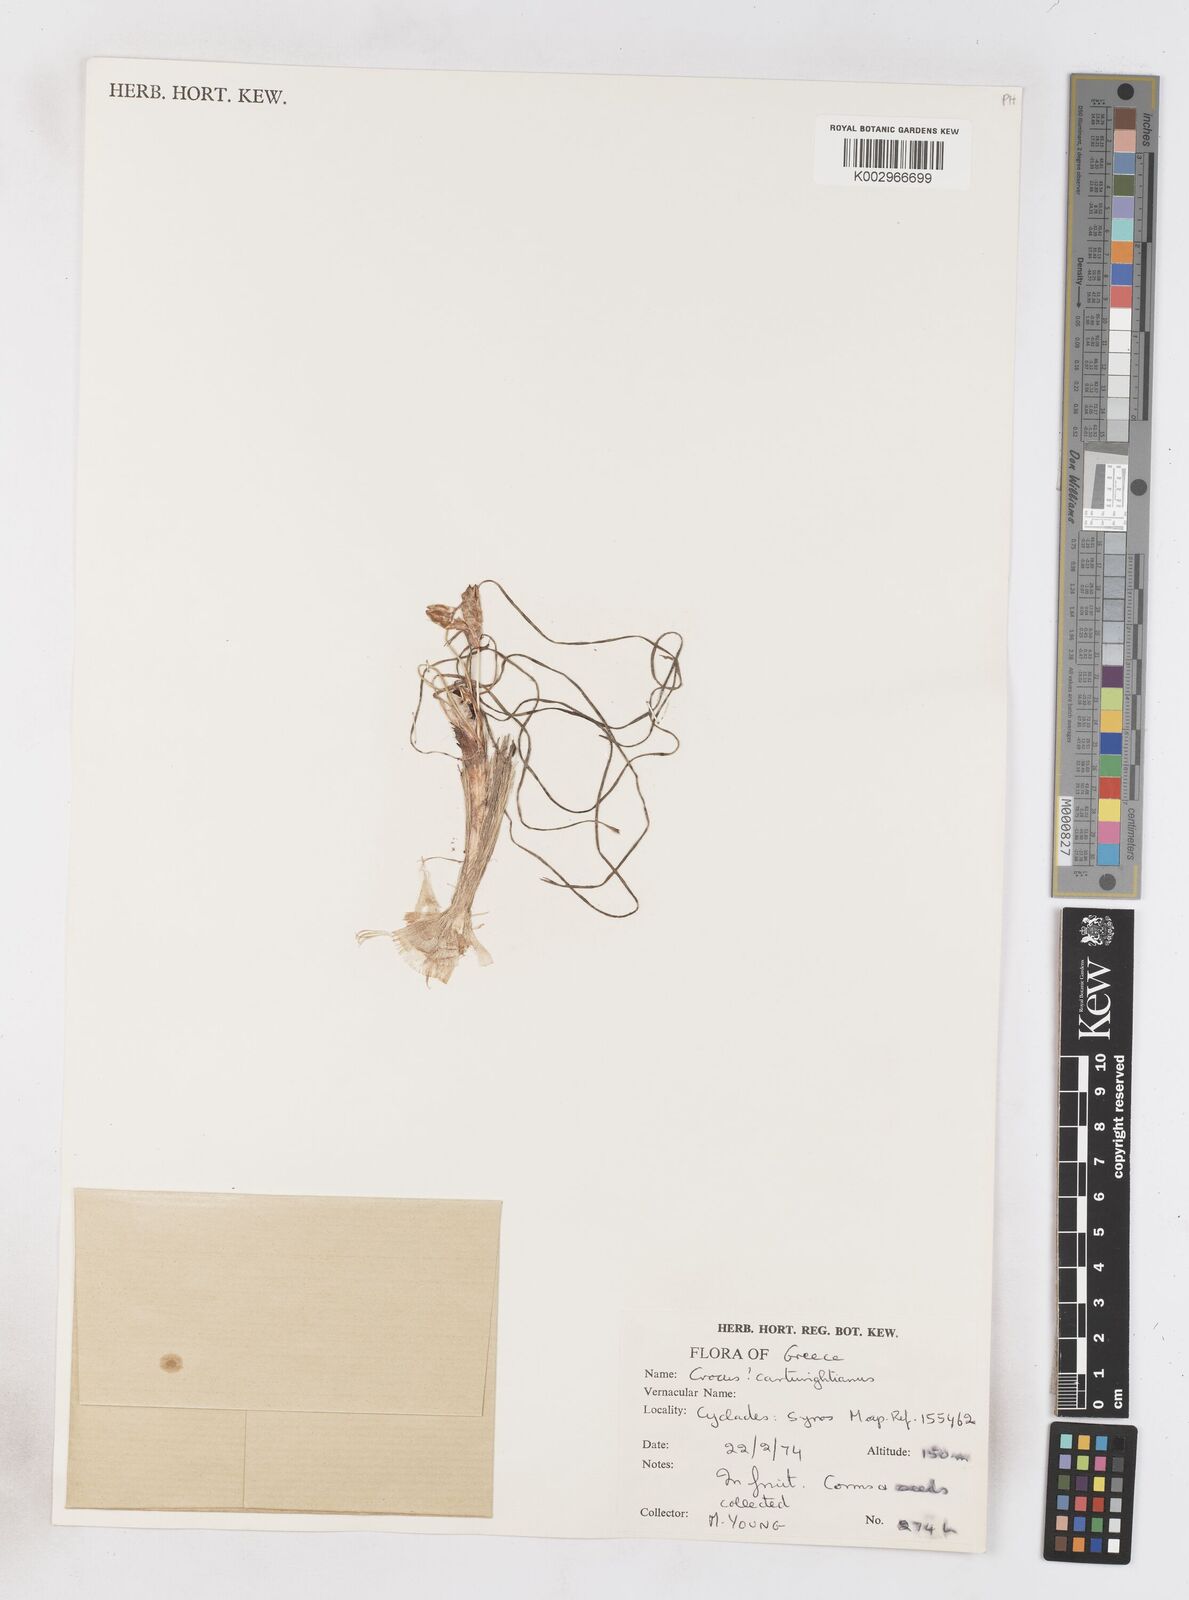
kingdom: Plantae
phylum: Tracheophyta
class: Liliopsida
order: Asparagales
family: Iridaceae
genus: Crocus
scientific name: Crocus cartwrightianus
